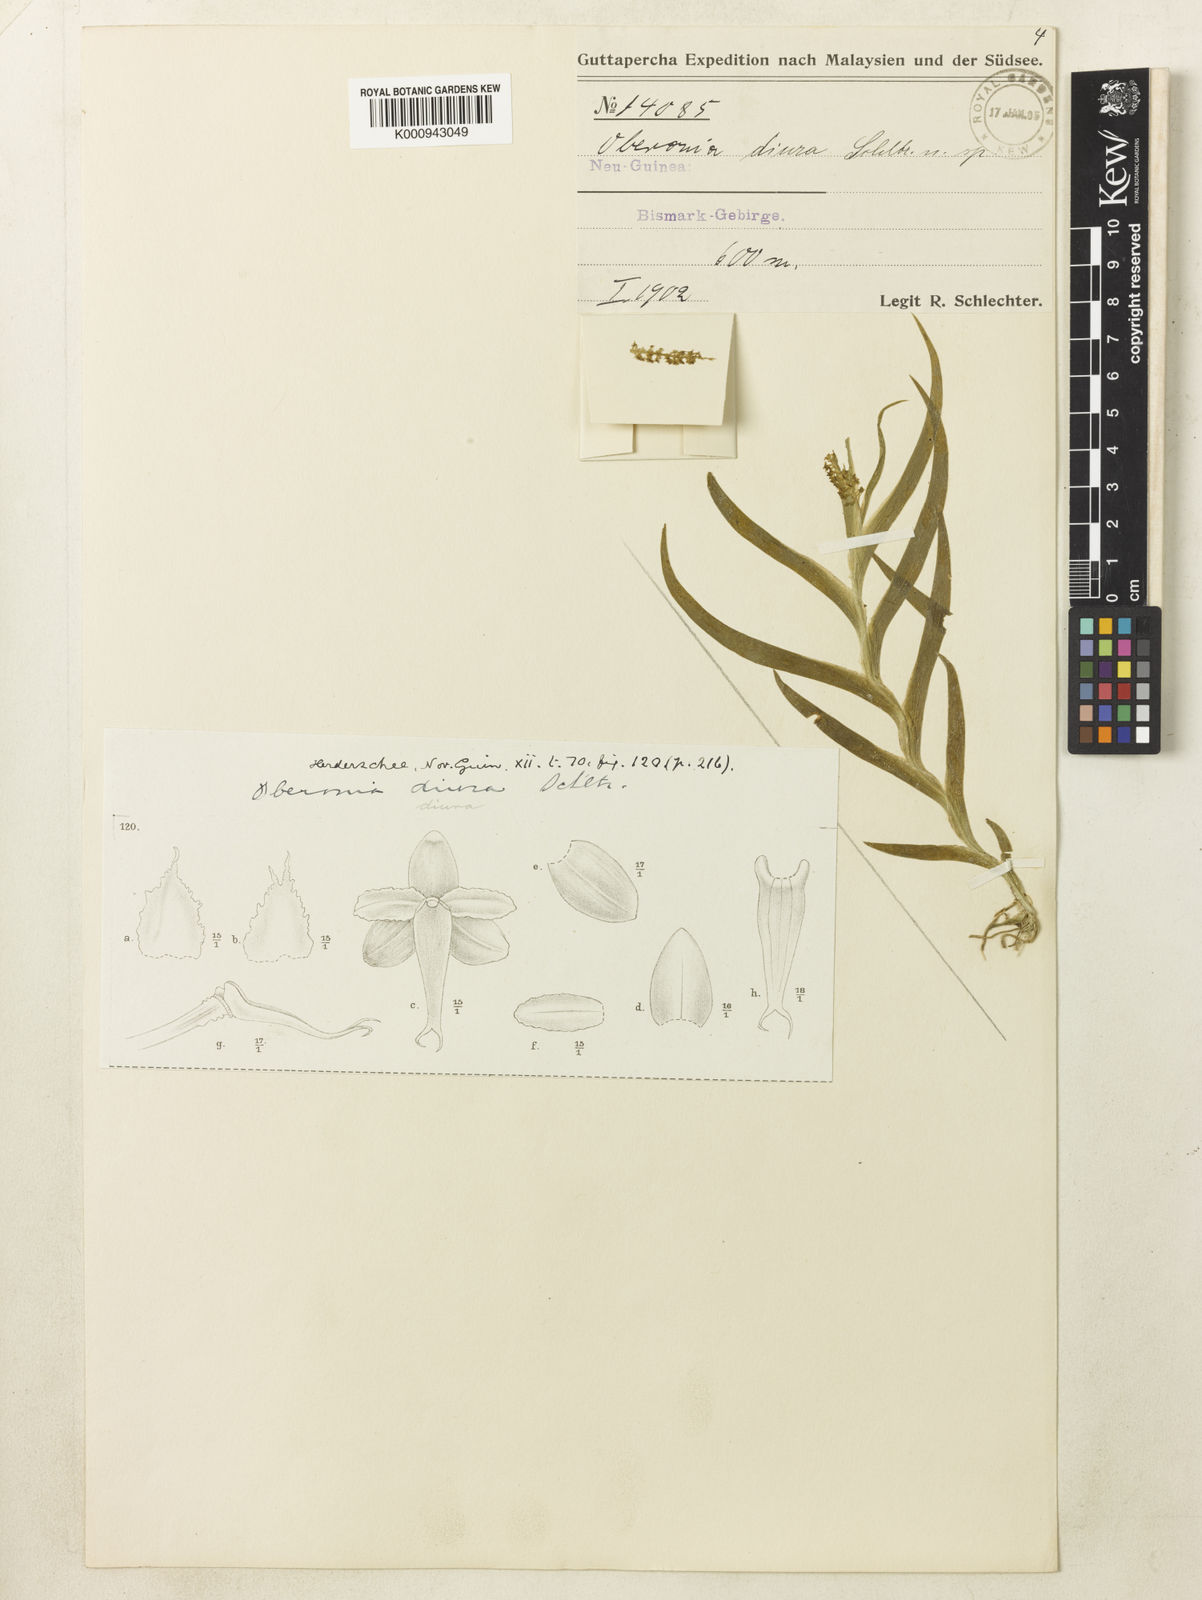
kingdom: Plantae
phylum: Tracheophyta
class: Liliopsida
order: Asparagales
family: Orchidaceae
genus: Oberonia
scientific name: Oberonia diura
